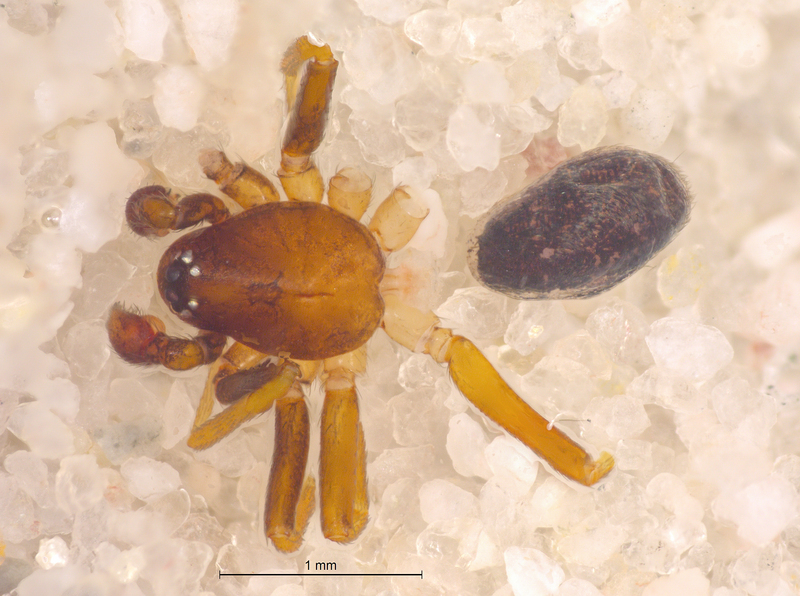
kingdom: Animalia
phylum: Arthropoda
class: Arachnida
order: Araneae
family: Zodariidae
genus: Zodarion
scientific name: Zodarion italicum
